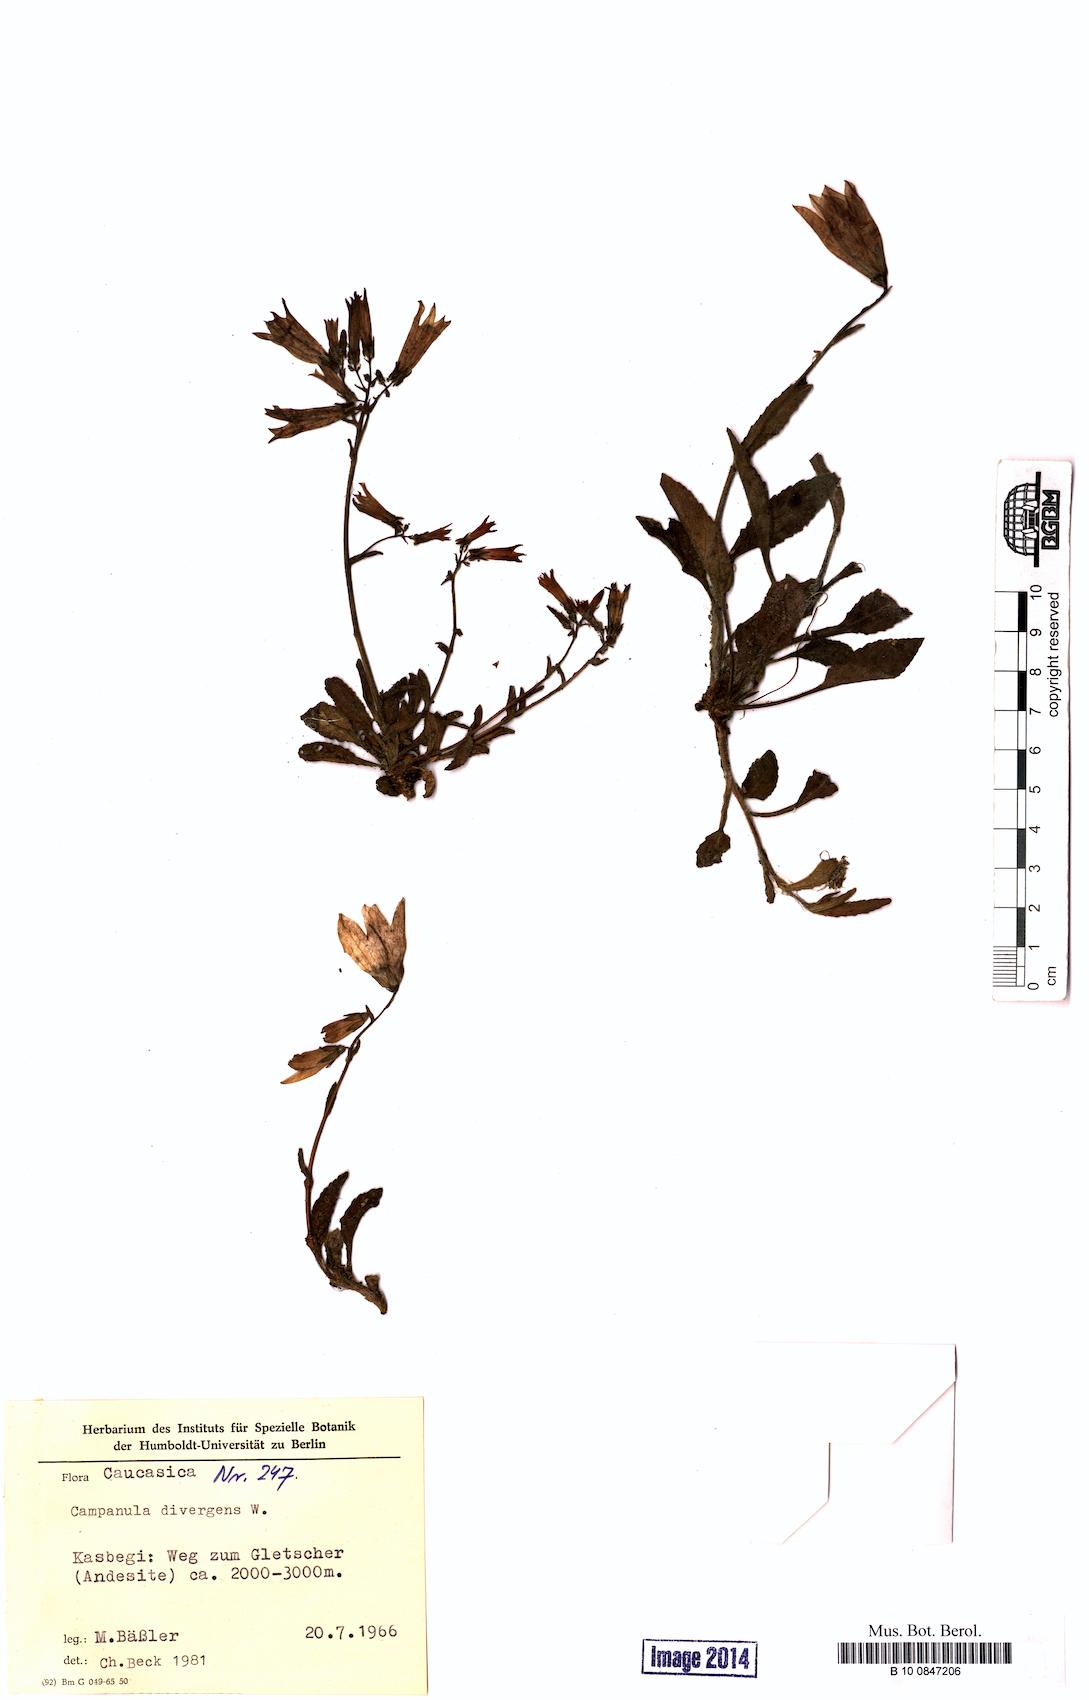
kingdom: Plantae
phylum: Tracheophyta
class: Magnoliopsida
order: Asterales
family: Campanulaceae
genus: Campanula
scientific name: Campanula sibirica
